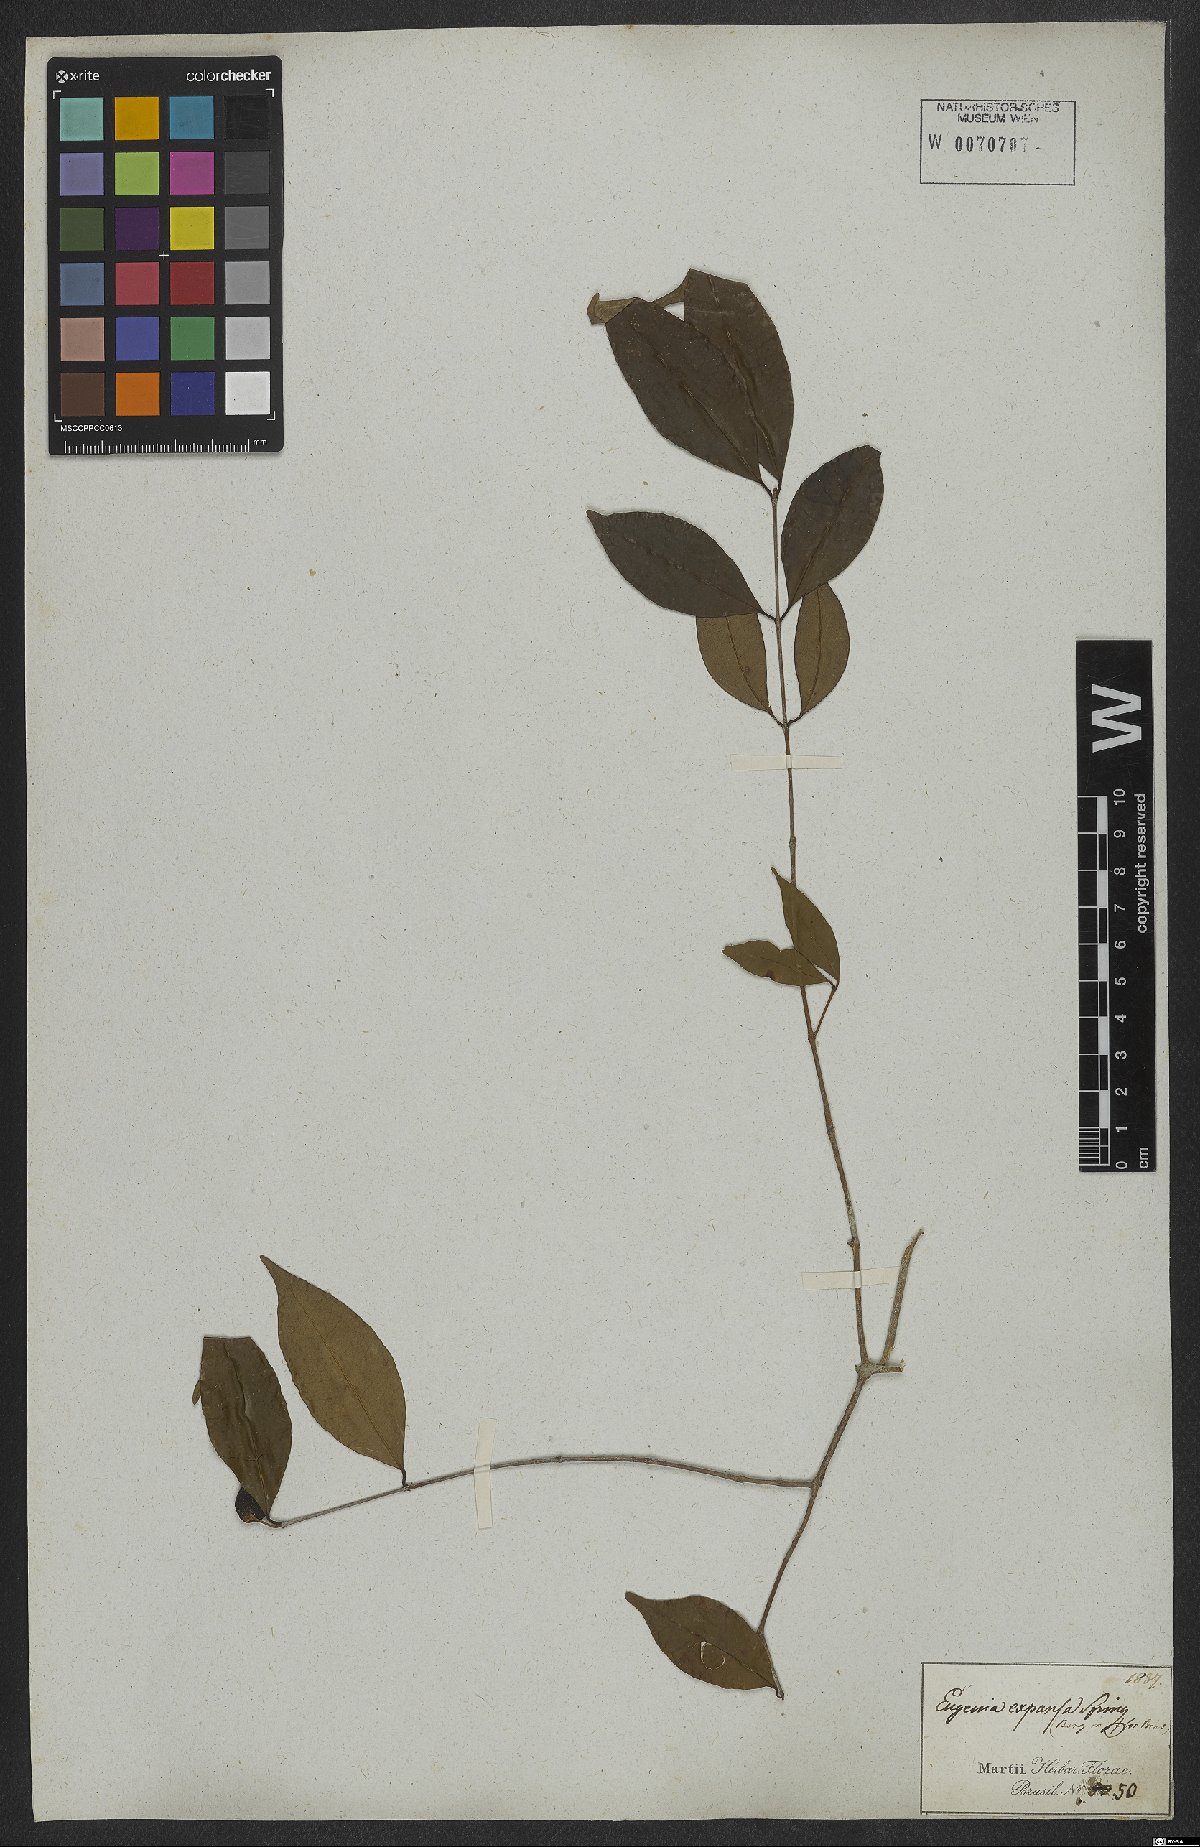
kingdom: Plantae
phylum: Tracheophyta
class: Magnoliopsida
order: Myrtales
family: Myrtaceae
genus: Eugenia
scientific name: Eugenia expansa
